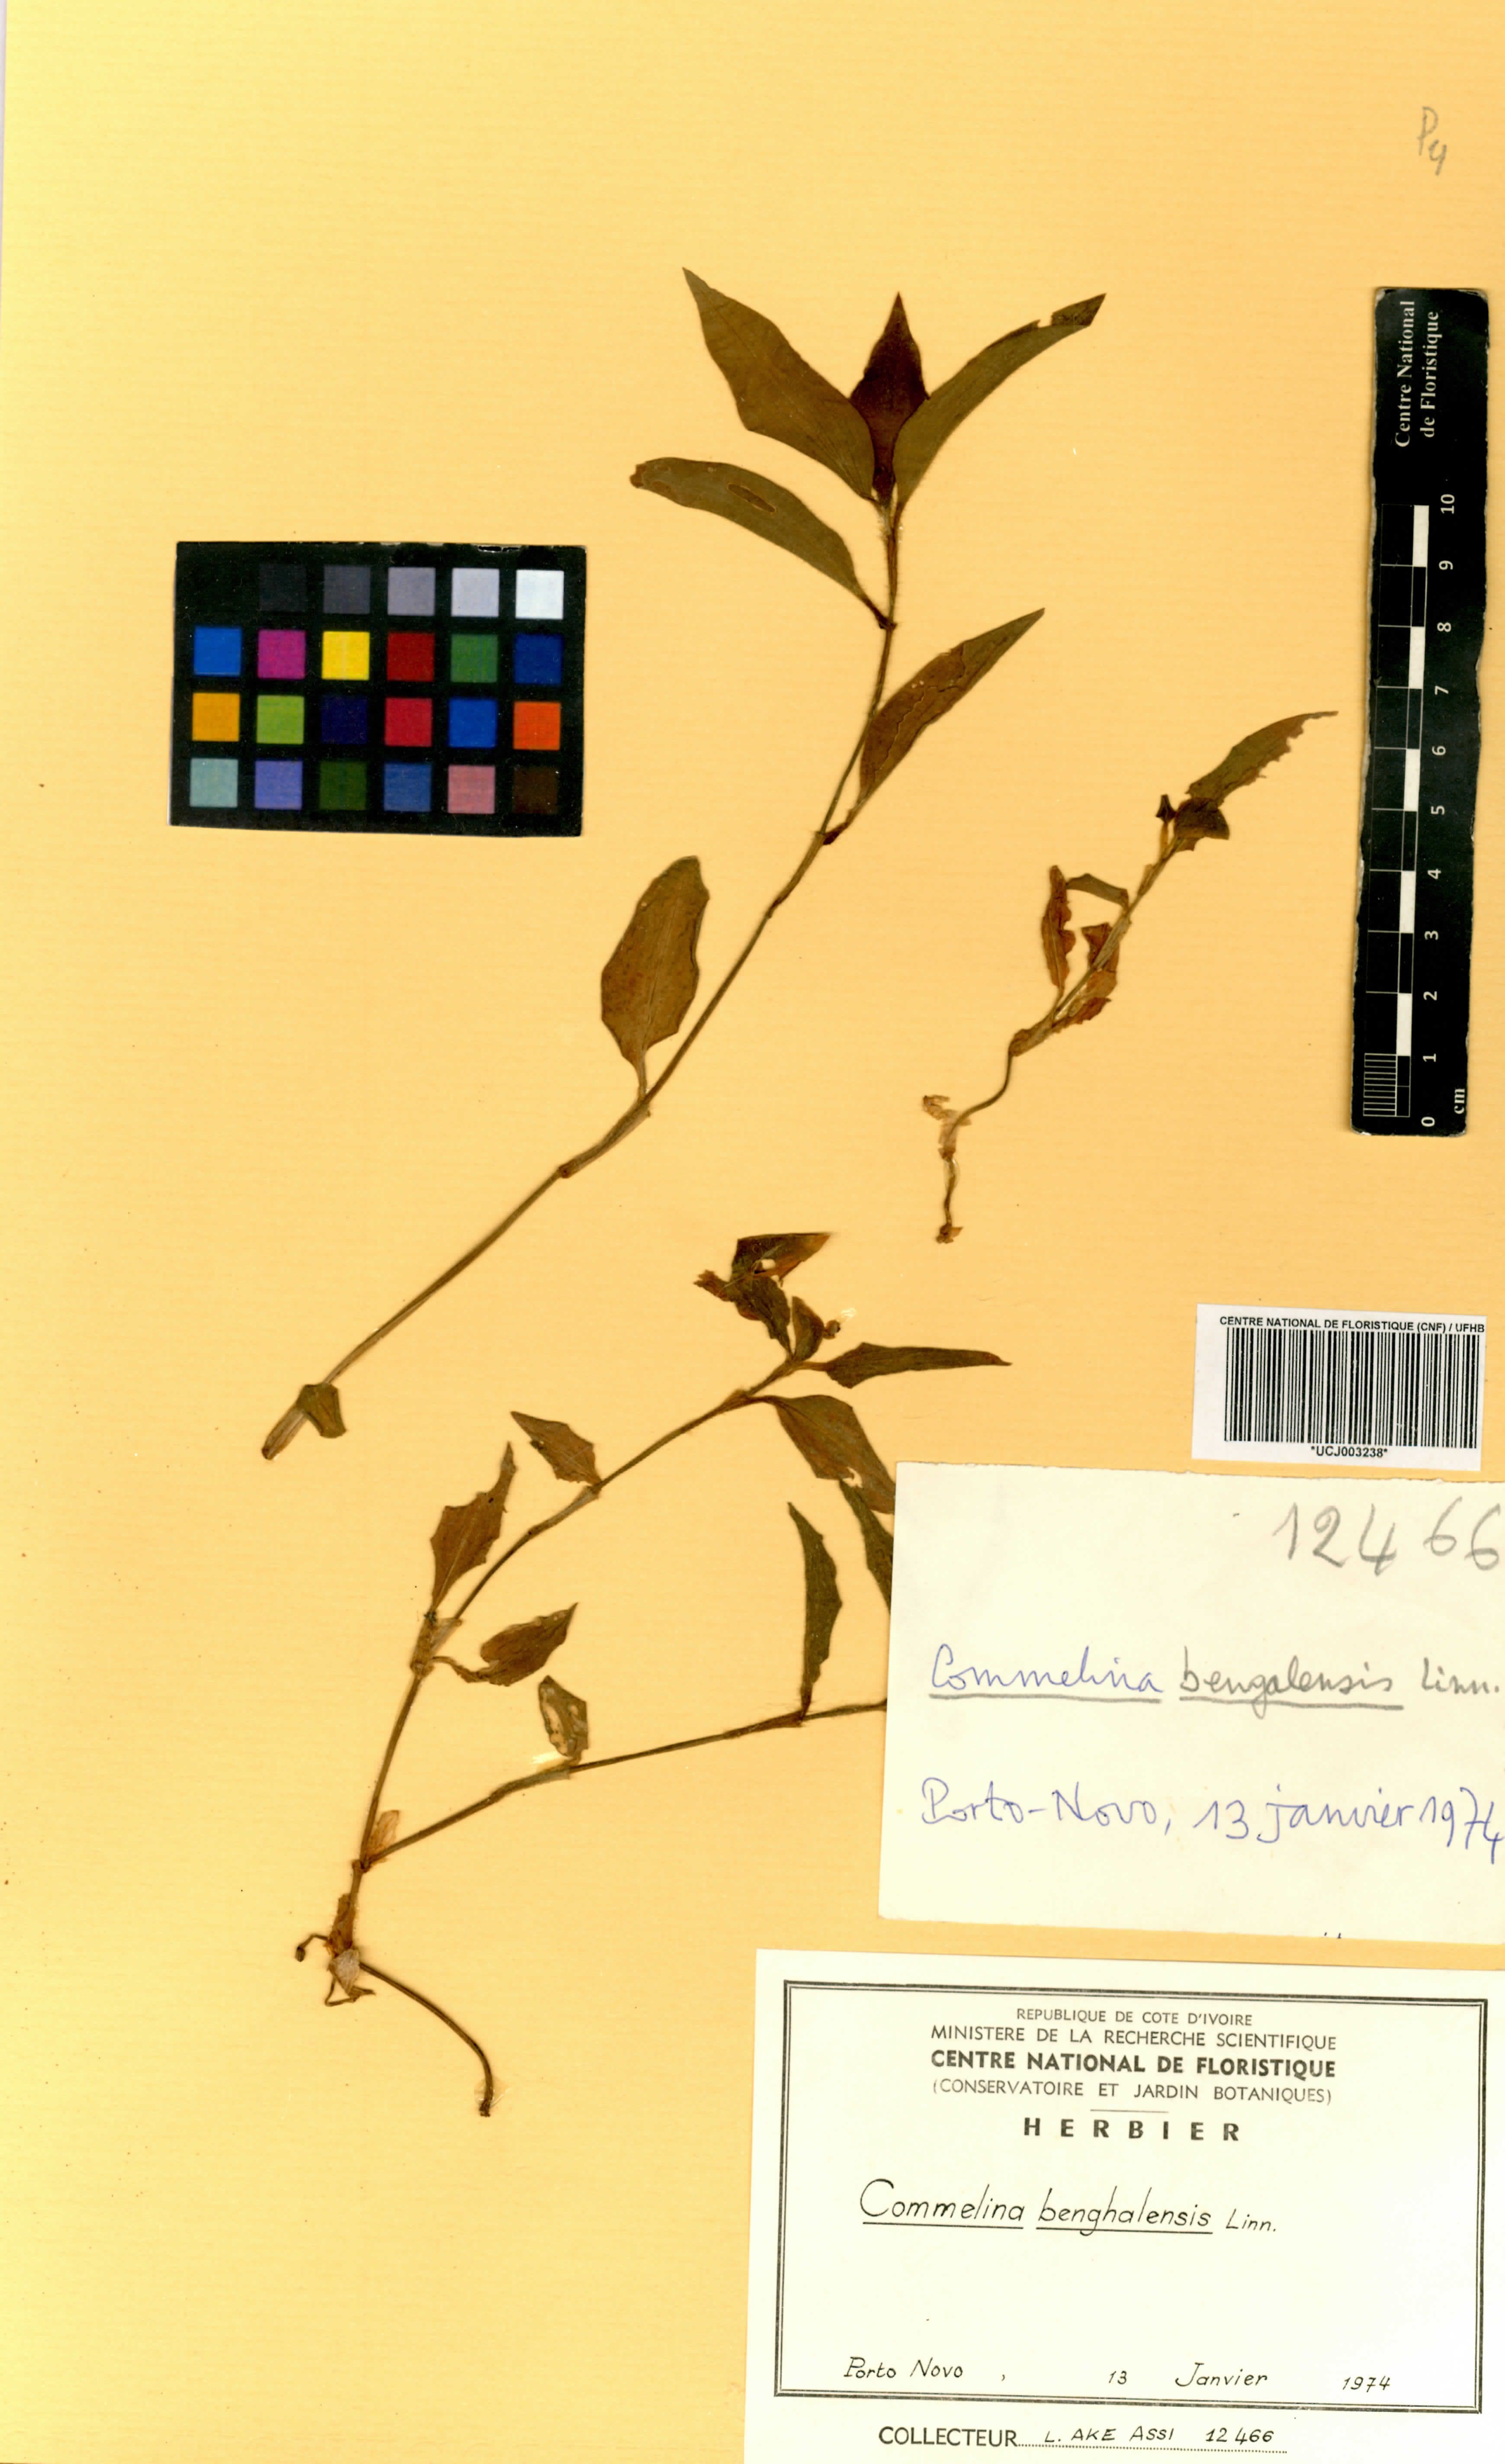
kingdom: Plantae
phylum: Tracheophyta
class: Liliopsida
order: Commelinales
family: Commelinaceae
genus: Commelina
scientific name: Commelina benghalensis
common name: Jio
